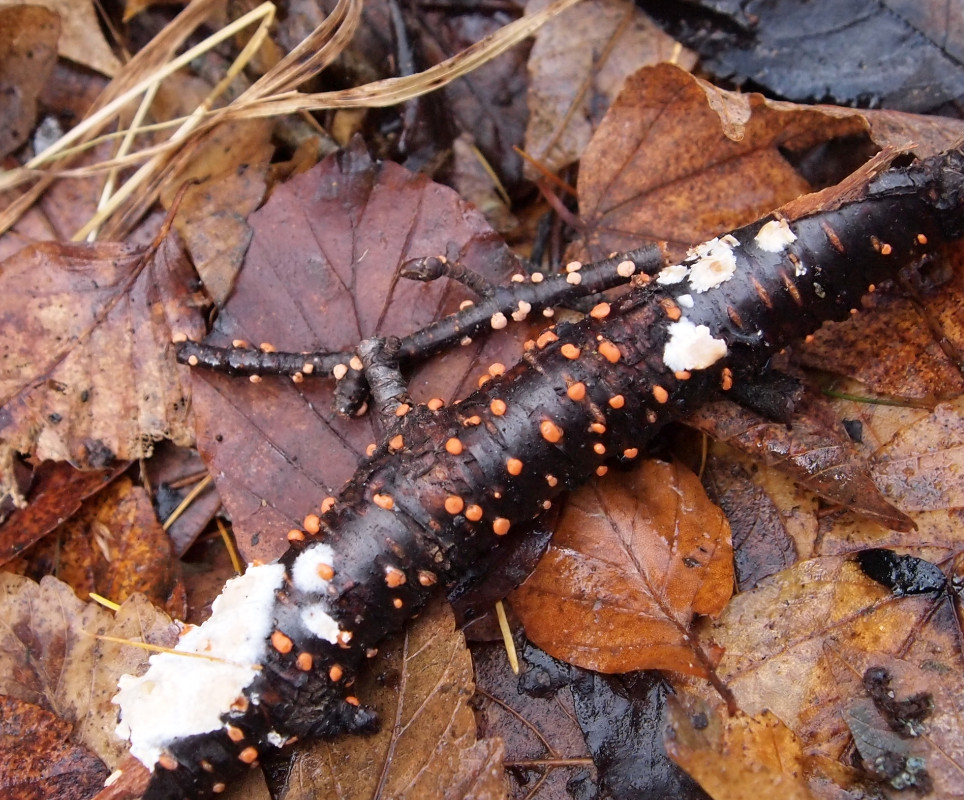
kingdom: Fungi
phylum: Ascomycota
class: Sordariomycetes
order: Hypocreales
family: Nectriaceae
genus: Nectria
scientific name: Nectria cinnabarina
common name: almindelig cinnobersvamp
